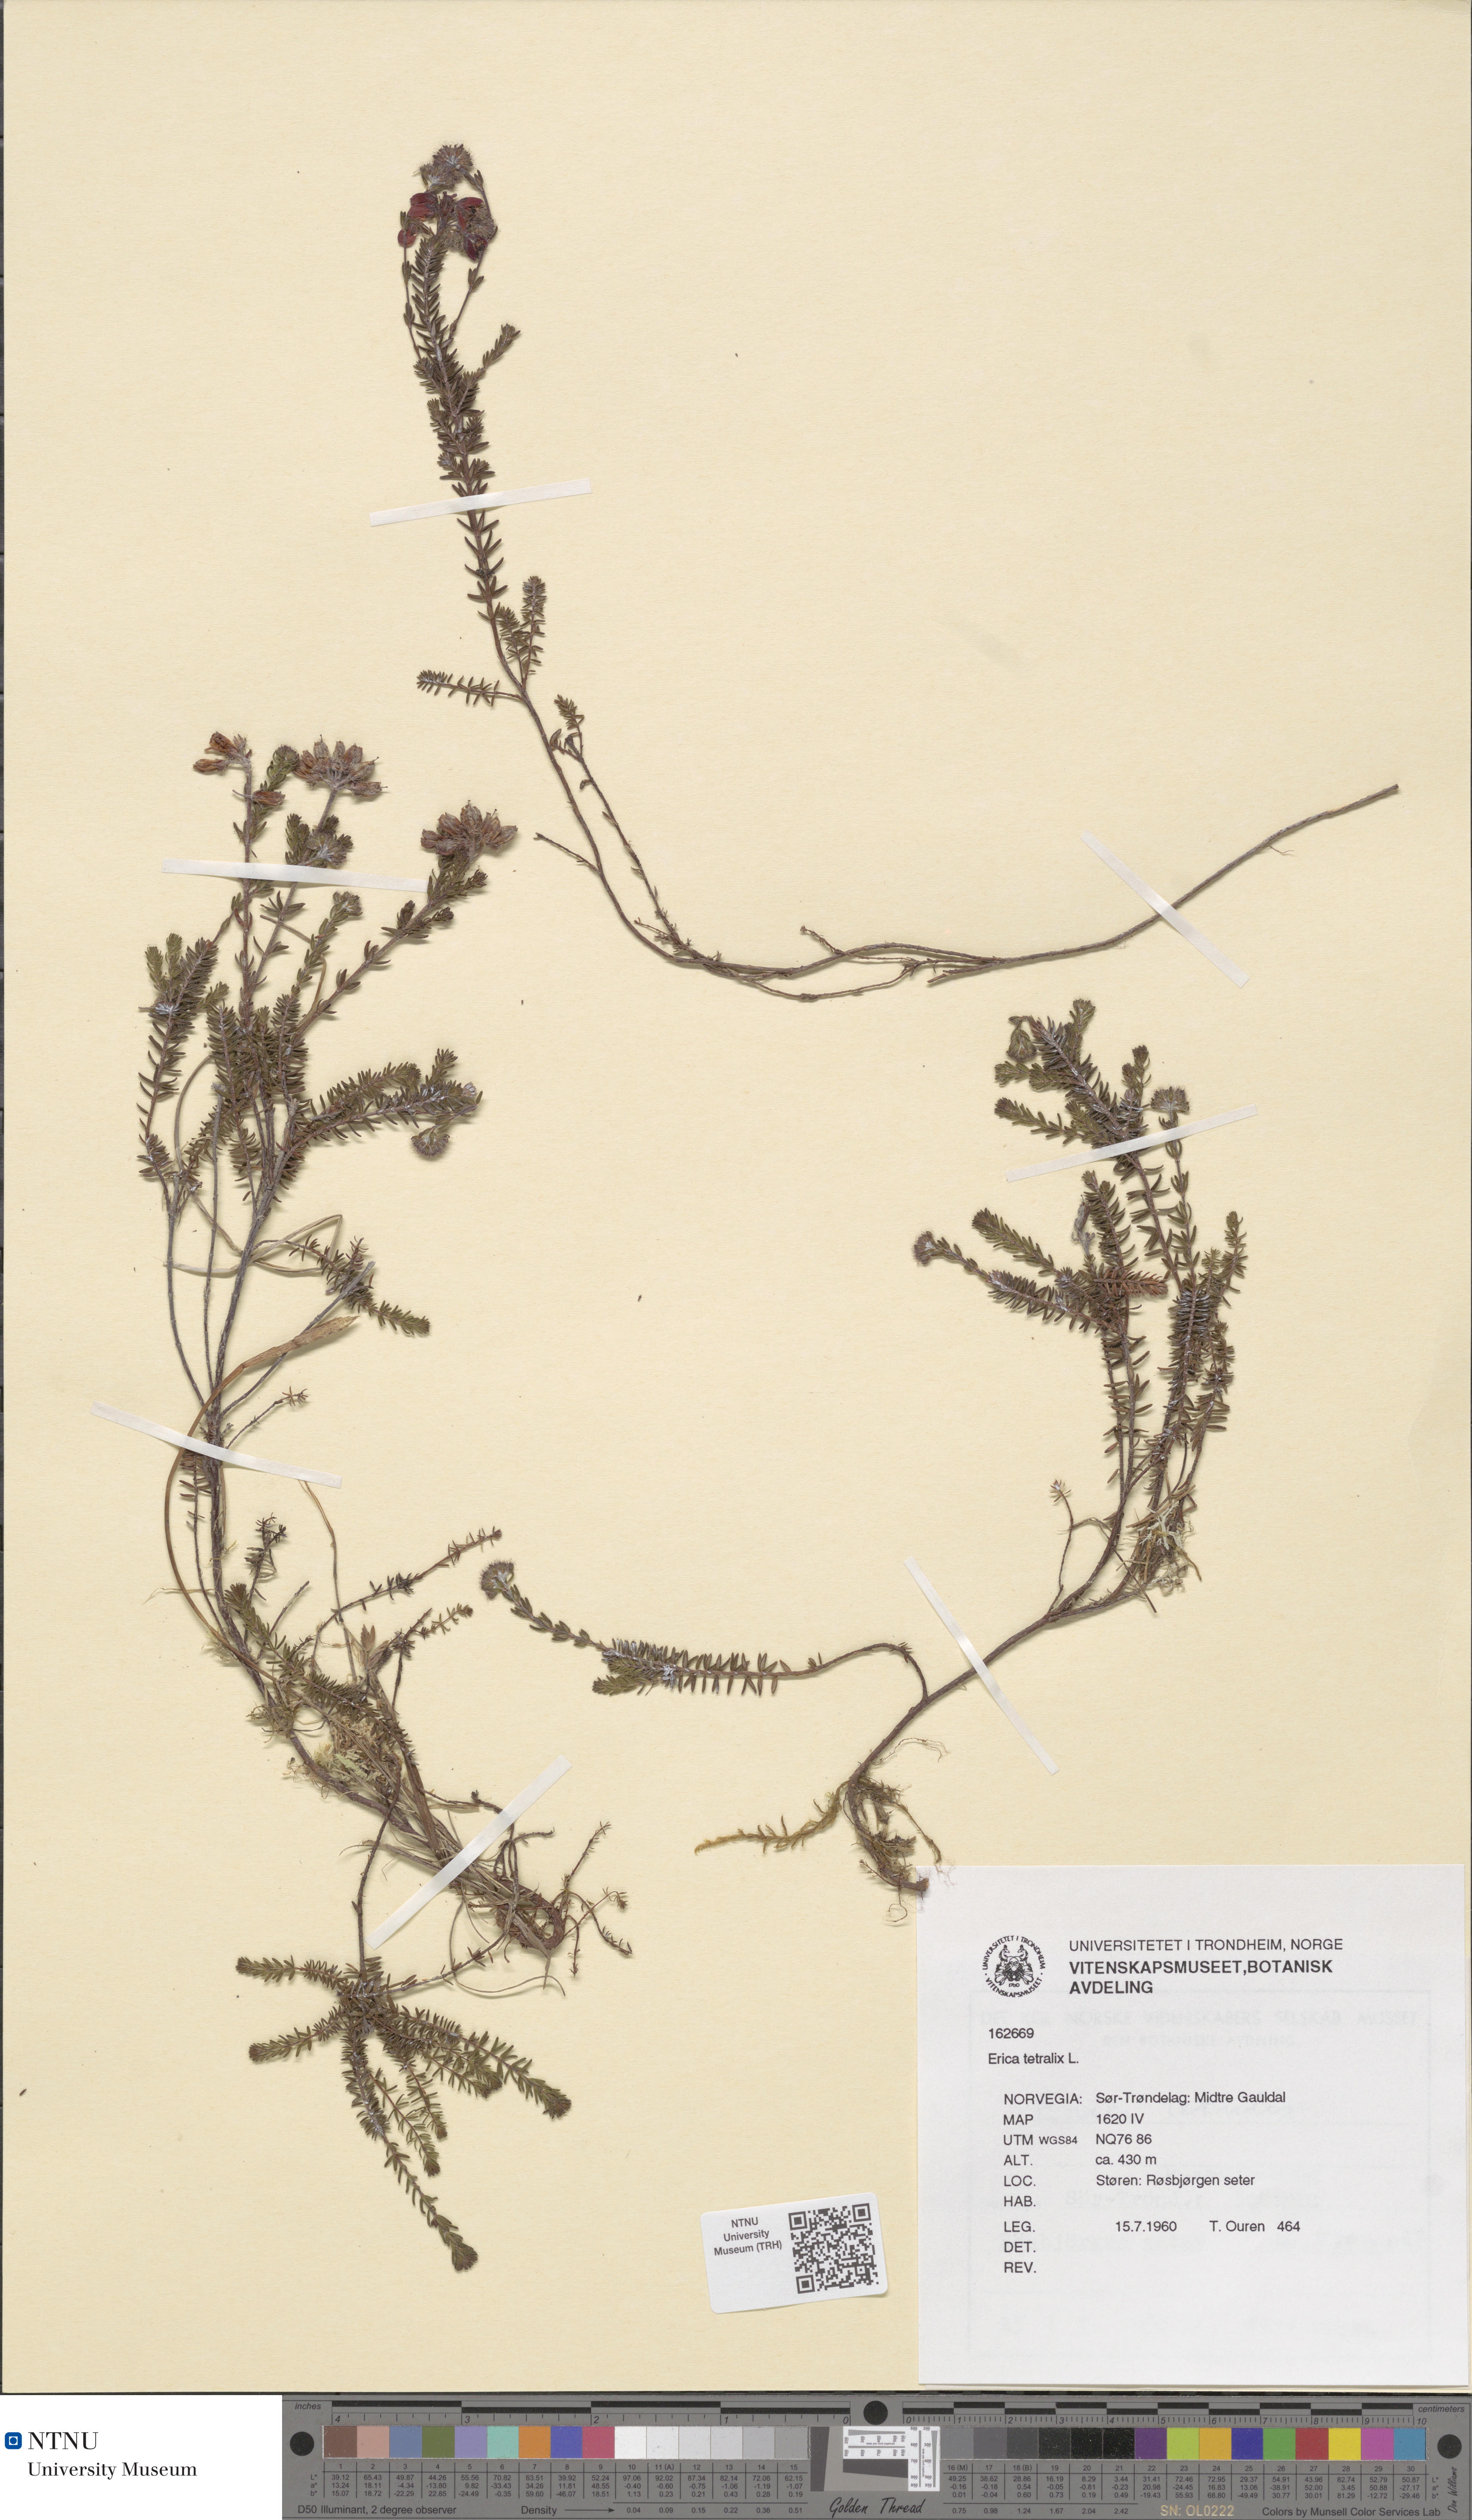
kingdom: Plantae
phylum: Tracheophyta
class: Magnoliopsida
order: Ericales
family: Ericaceae
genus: Erica
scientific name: Erica tetralix
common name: Cross-leaved heath
